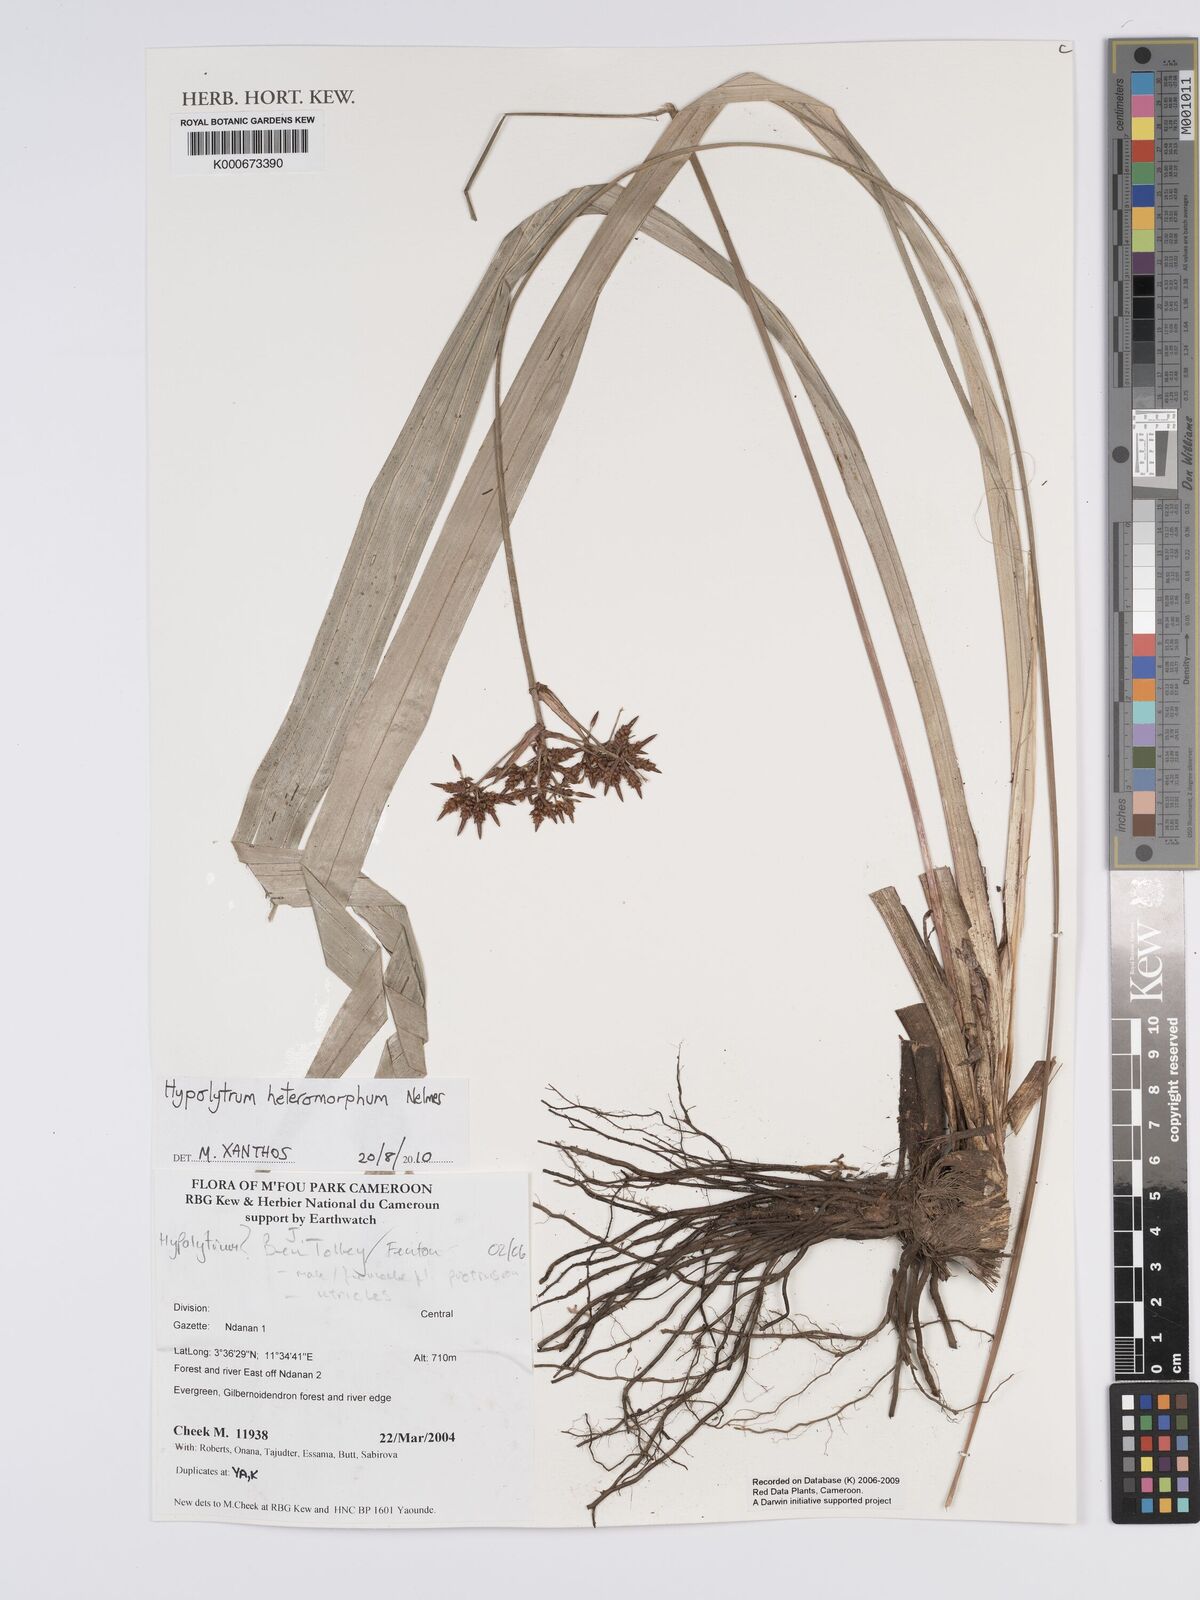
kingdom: Plantae
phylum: Tracheophyta
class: Liliopsida
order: Poales
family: Cyperaceae
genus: Hypolytrum
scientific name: Hypolytrum heteromorphum
